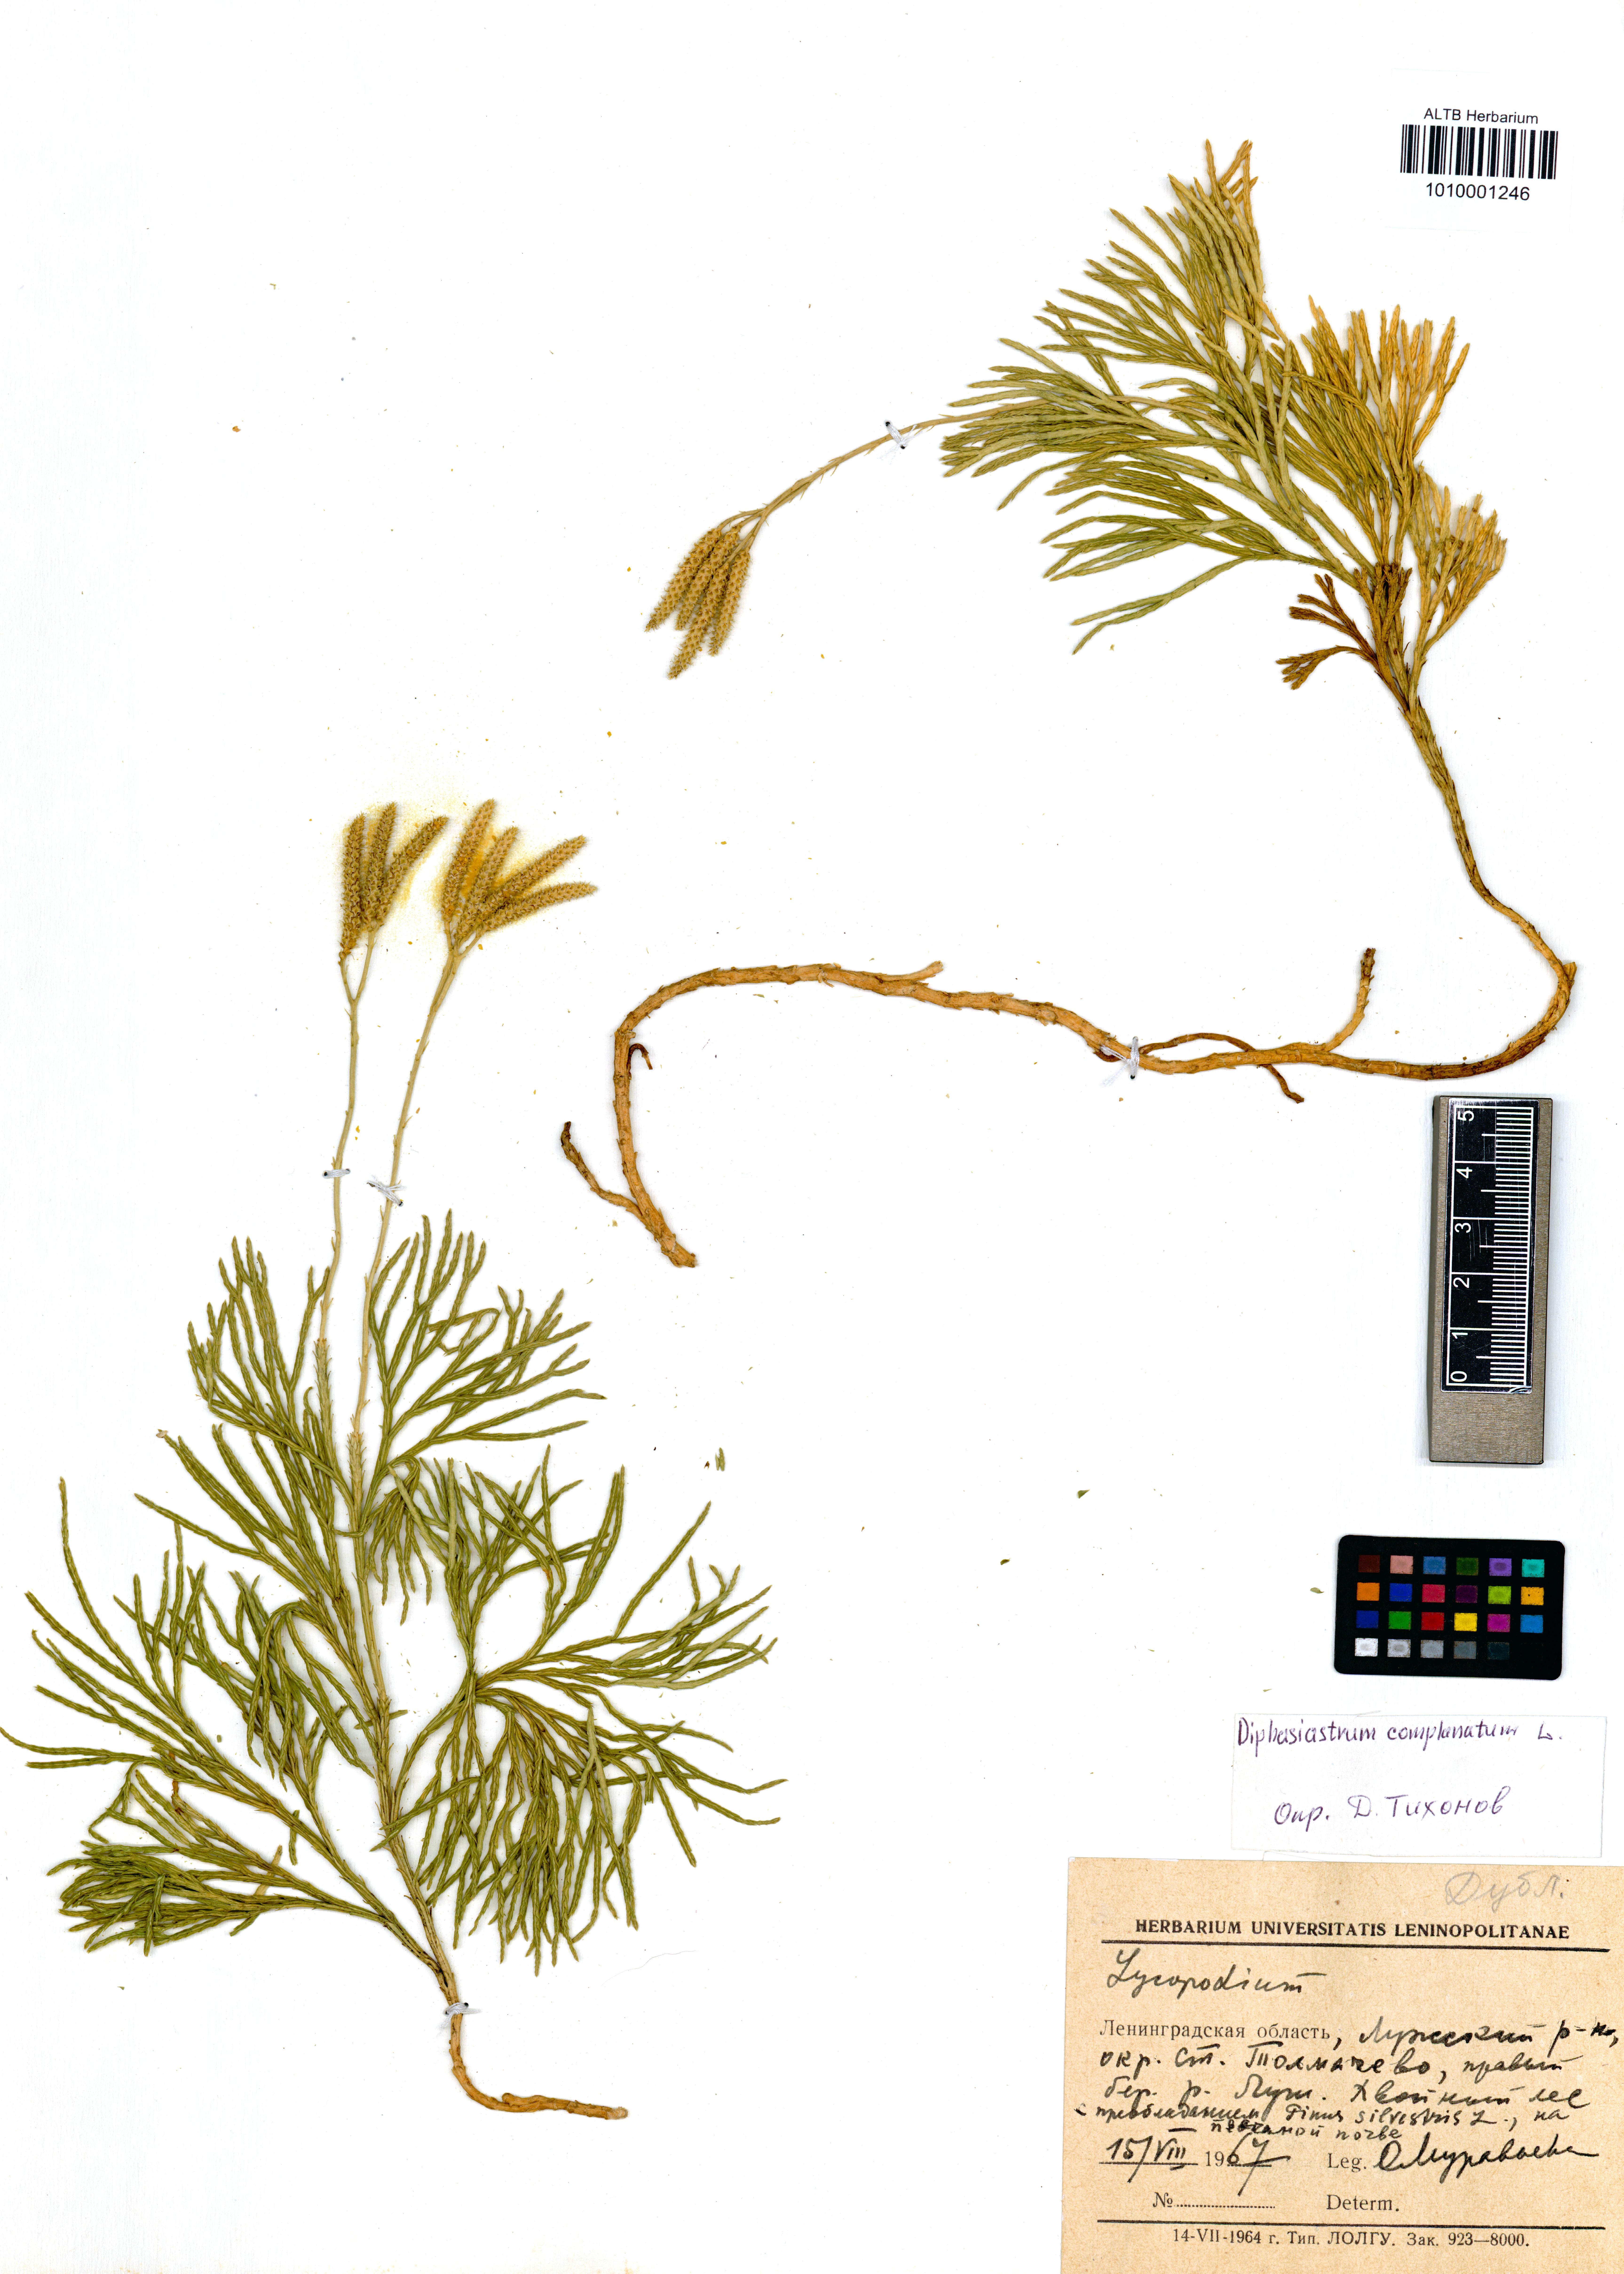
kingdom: Plantae
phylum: Tracheophyta
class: Lycopodiopsida
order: Lycopodiales
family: Lycopodiaceae
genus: Diphasiastrum
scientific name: Diphasiastrum complanatum
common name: Northern running-pine
